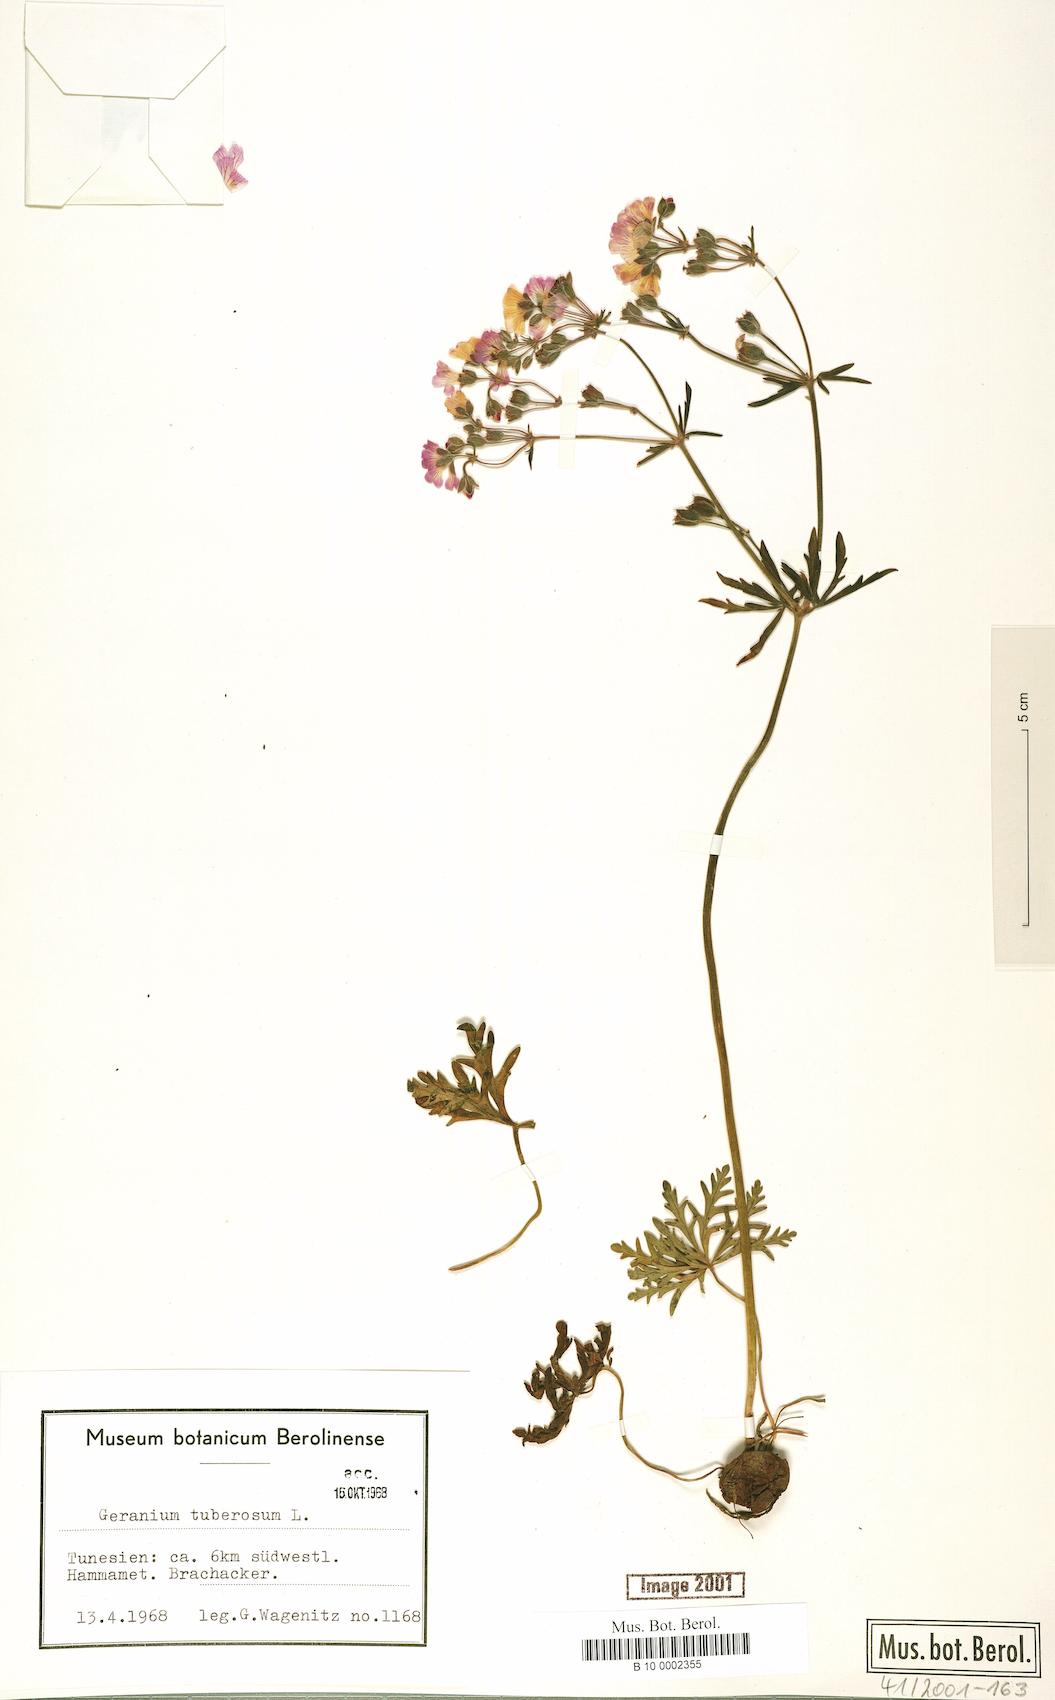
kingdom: Plantae
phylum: Tracheophyta
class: Magnoliopsida
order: Geraniales
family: Geraniaceae
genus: Geranium
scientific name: Geranium tuberosum
